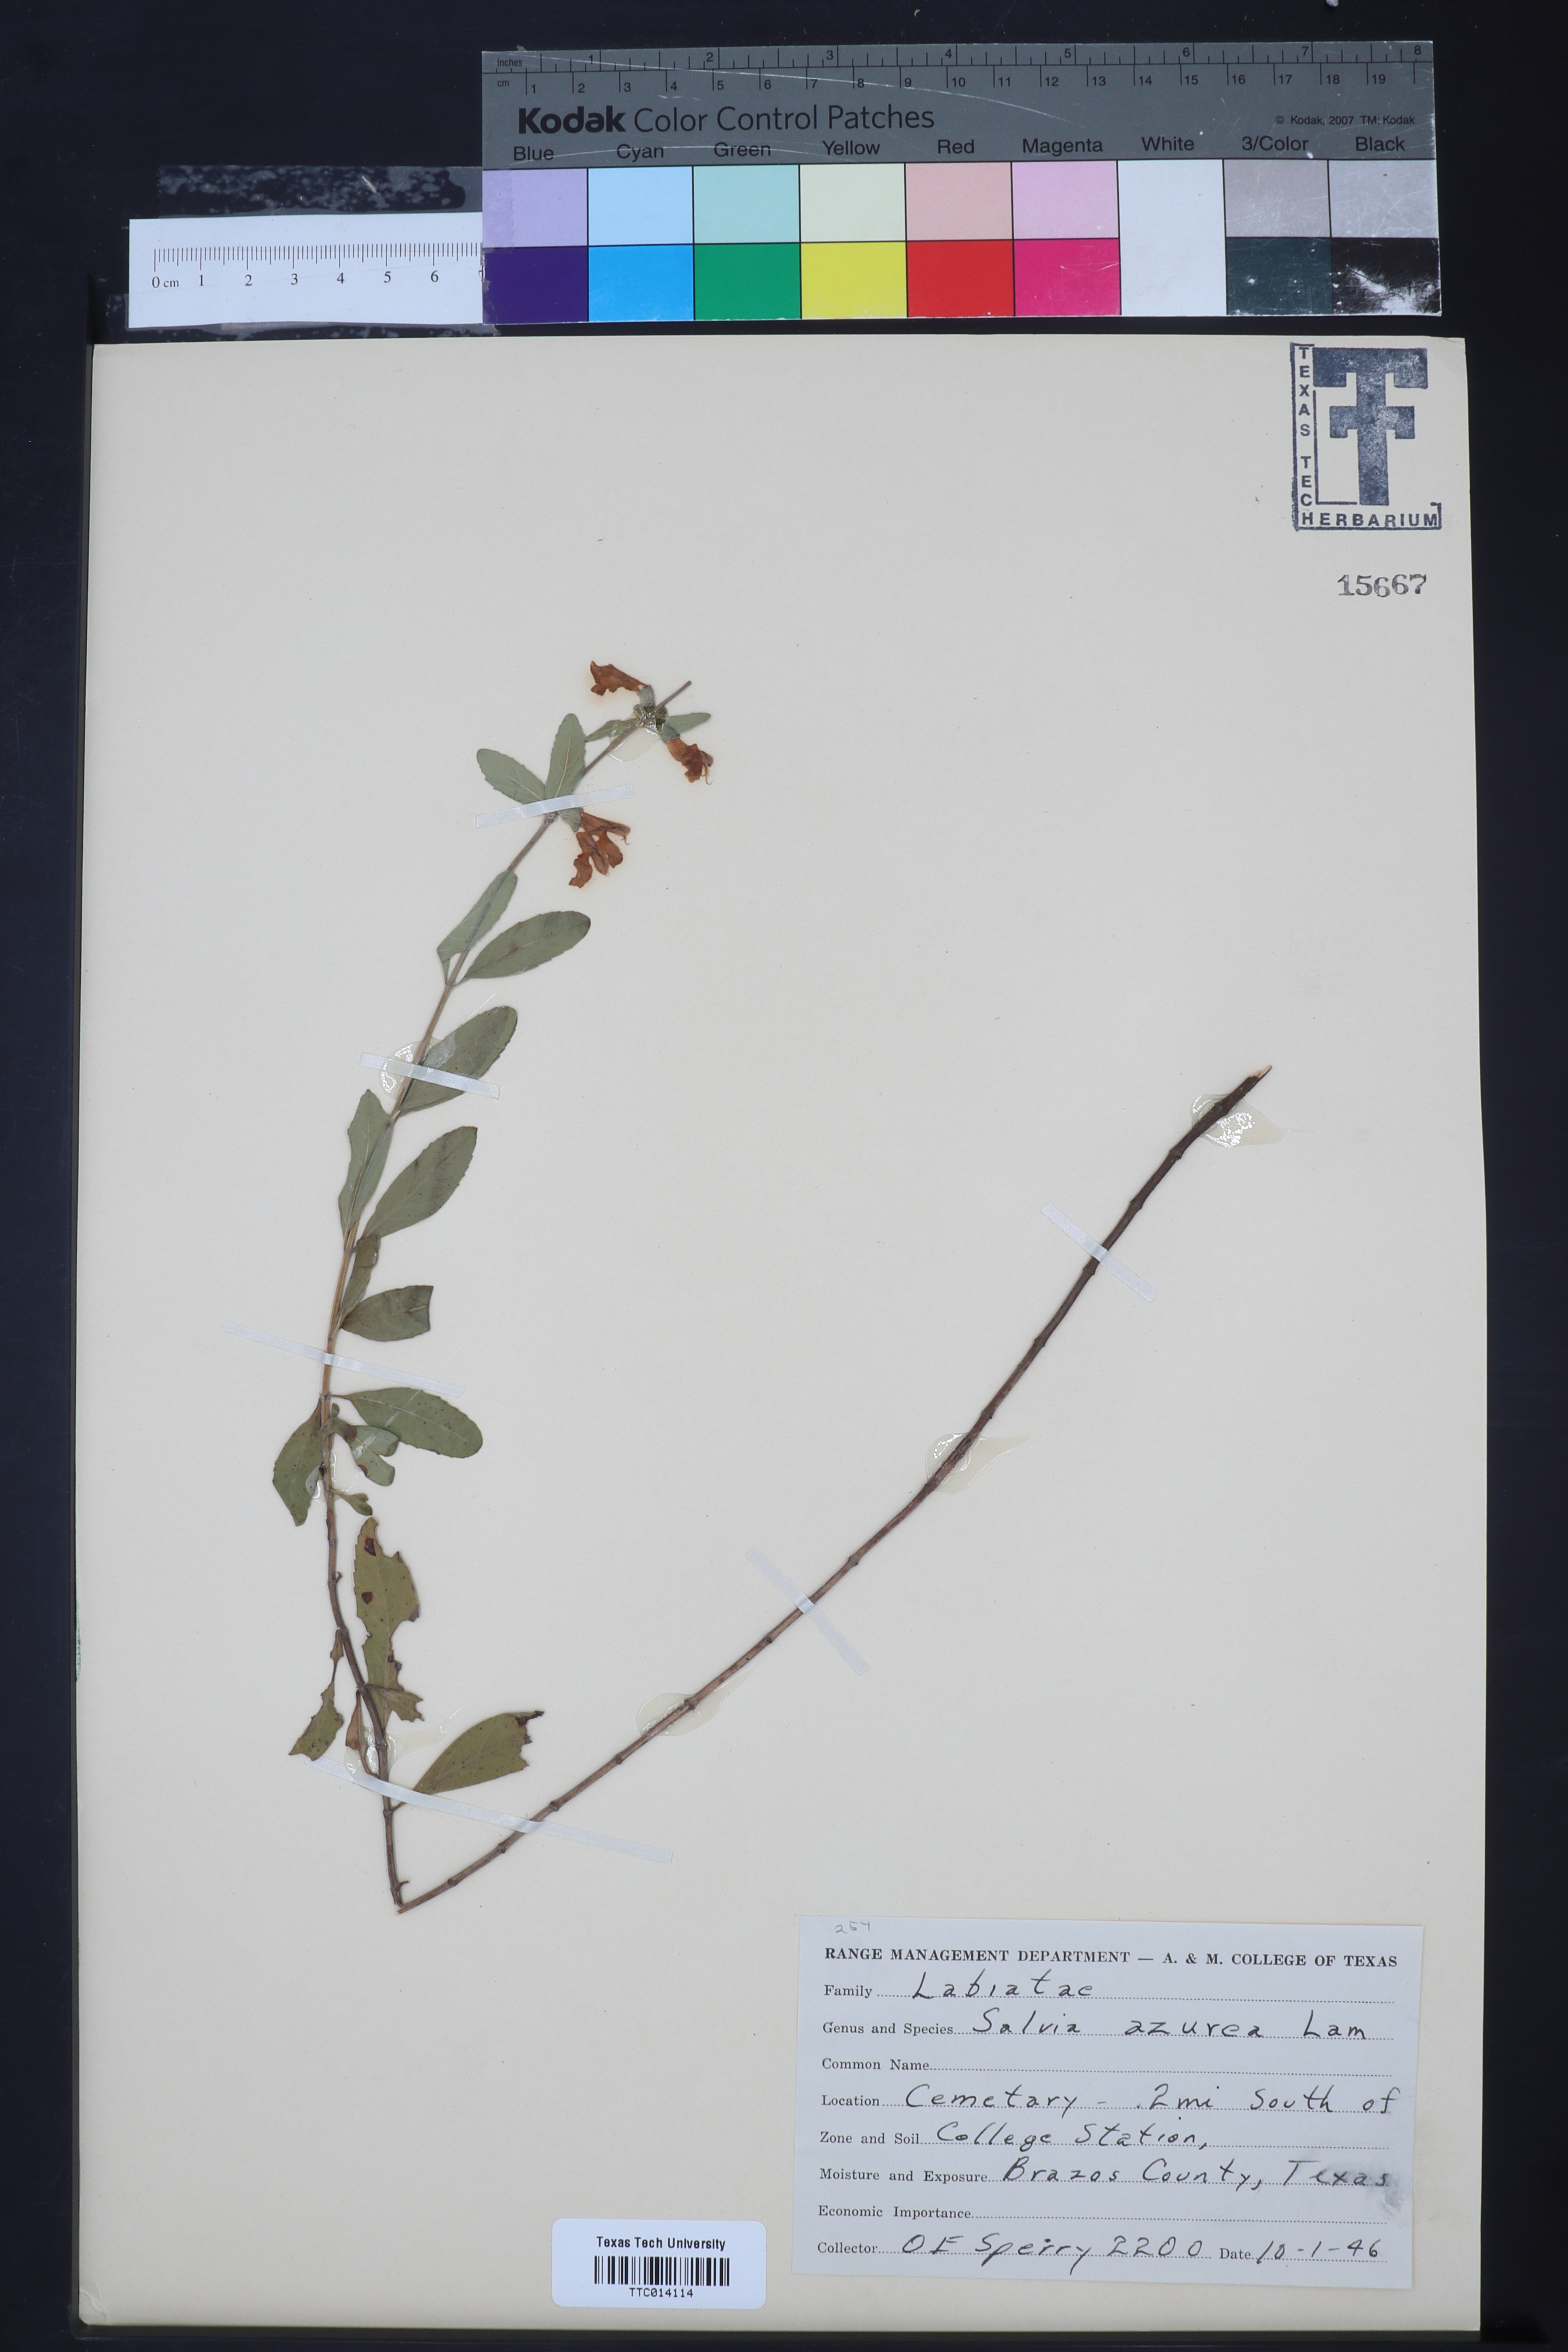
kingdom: Plantae
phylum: Tracheophyta
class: Magnoliopsida
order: Lamiales
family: Lamiaceae
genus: Salvia
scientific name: Salvia azurea
